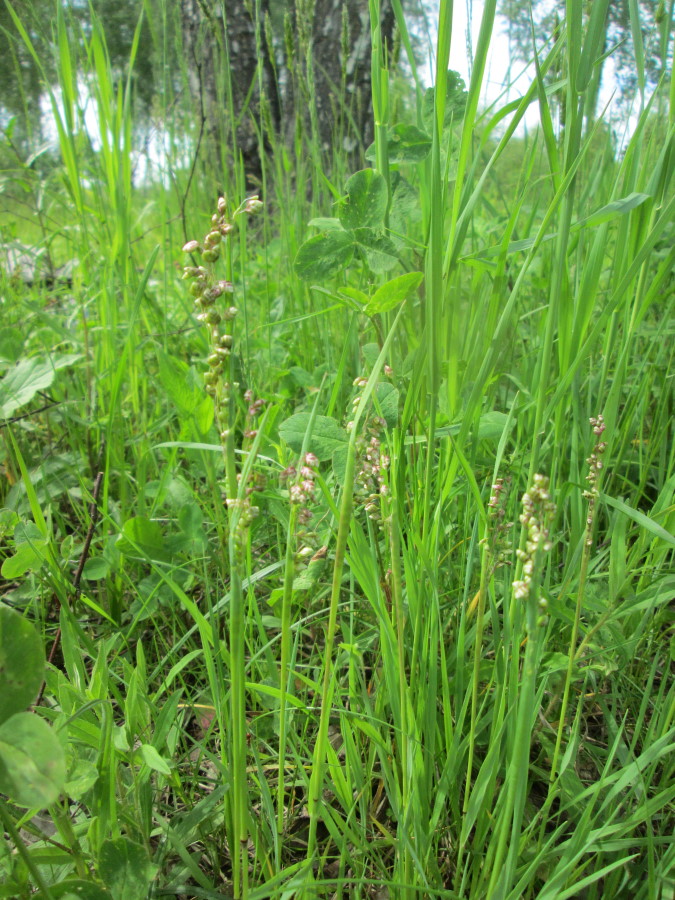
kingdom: Plantae
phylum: Tracheophyta
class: Liliopsida
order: Poales
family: Poaceae
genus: Briza
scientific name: Briza media
